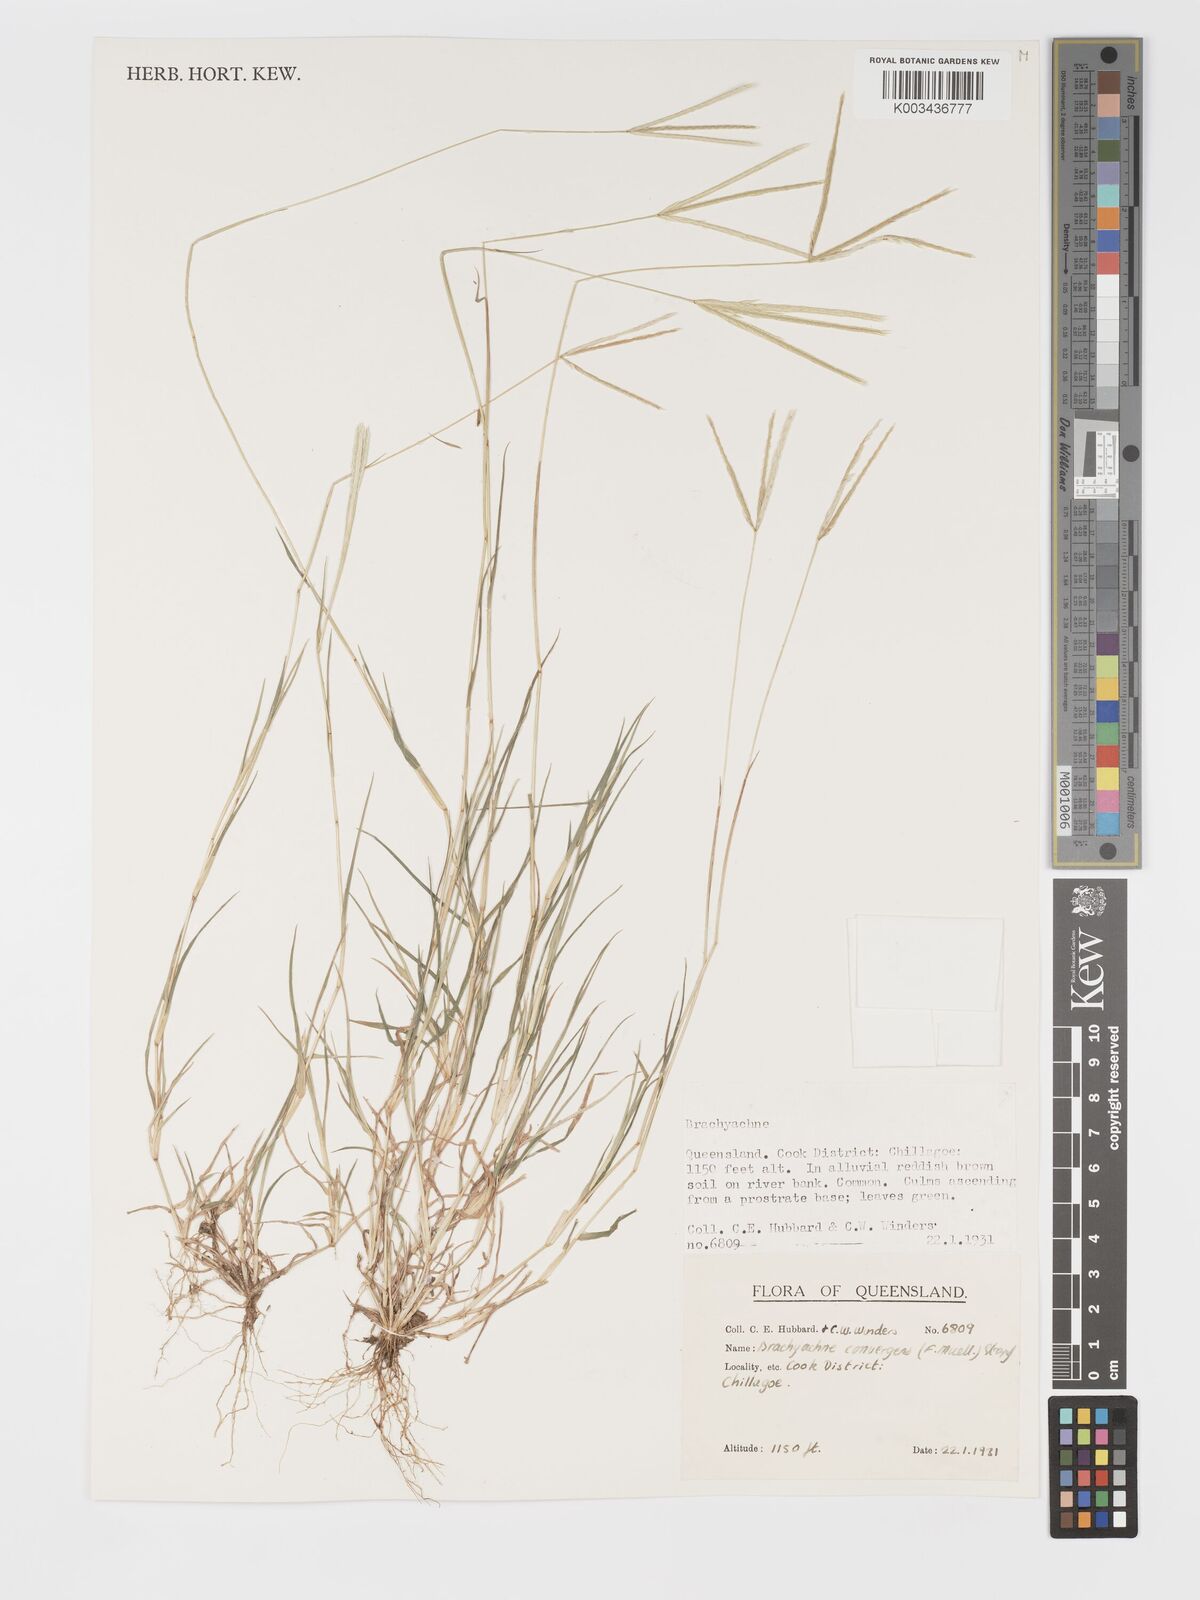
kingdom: Plantae
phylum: Tracheophyta
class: Liliopsida
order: Poales
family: Poaceae
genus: Cynodon
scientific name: Cynodon convergens
